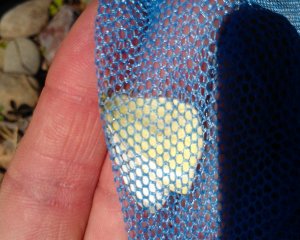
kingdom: Animalia
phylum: Arthropoda
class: Insecta
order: Lepidoptera
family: Pieridae
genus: Pieris
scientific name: Pieris rapae
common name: Cabbage White
